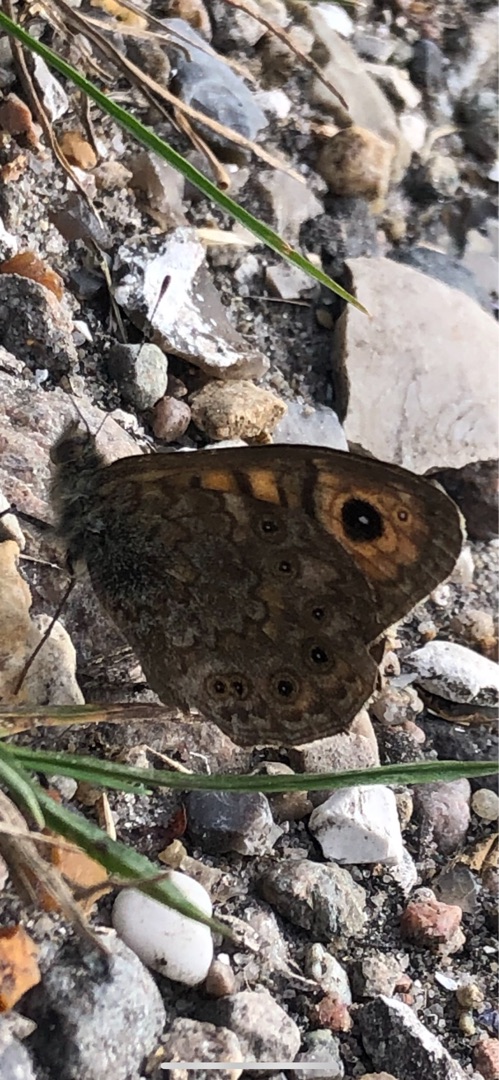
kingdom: Animalia
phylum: Arthropoda
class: Insecta
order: Lepidoptera
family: Nymphalidae
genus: Pararge
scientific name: Pararge Lasiommata megera
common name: Vejrandøje
